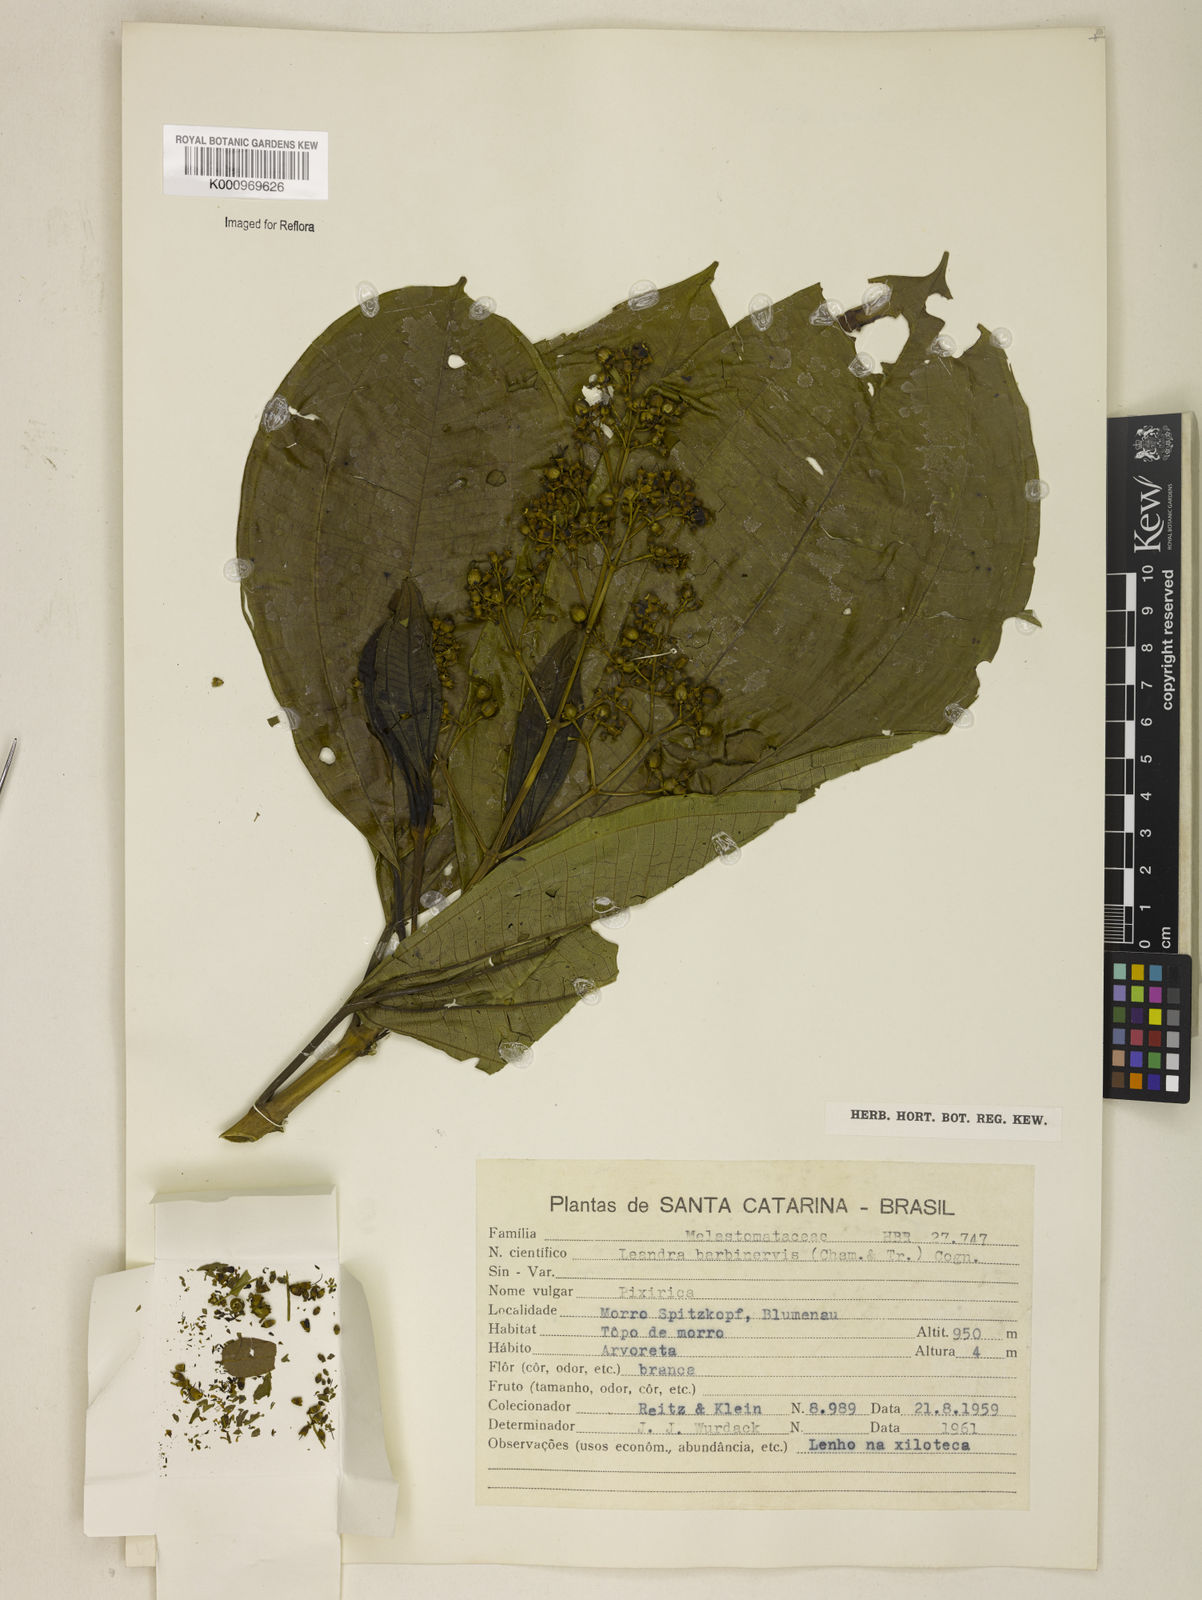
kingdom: Plantae
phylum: Tracheophyta
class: Magnoliopsida
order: Myrtales
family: Melastomataceae
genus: Miconia
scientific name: Miconia trauninensis
